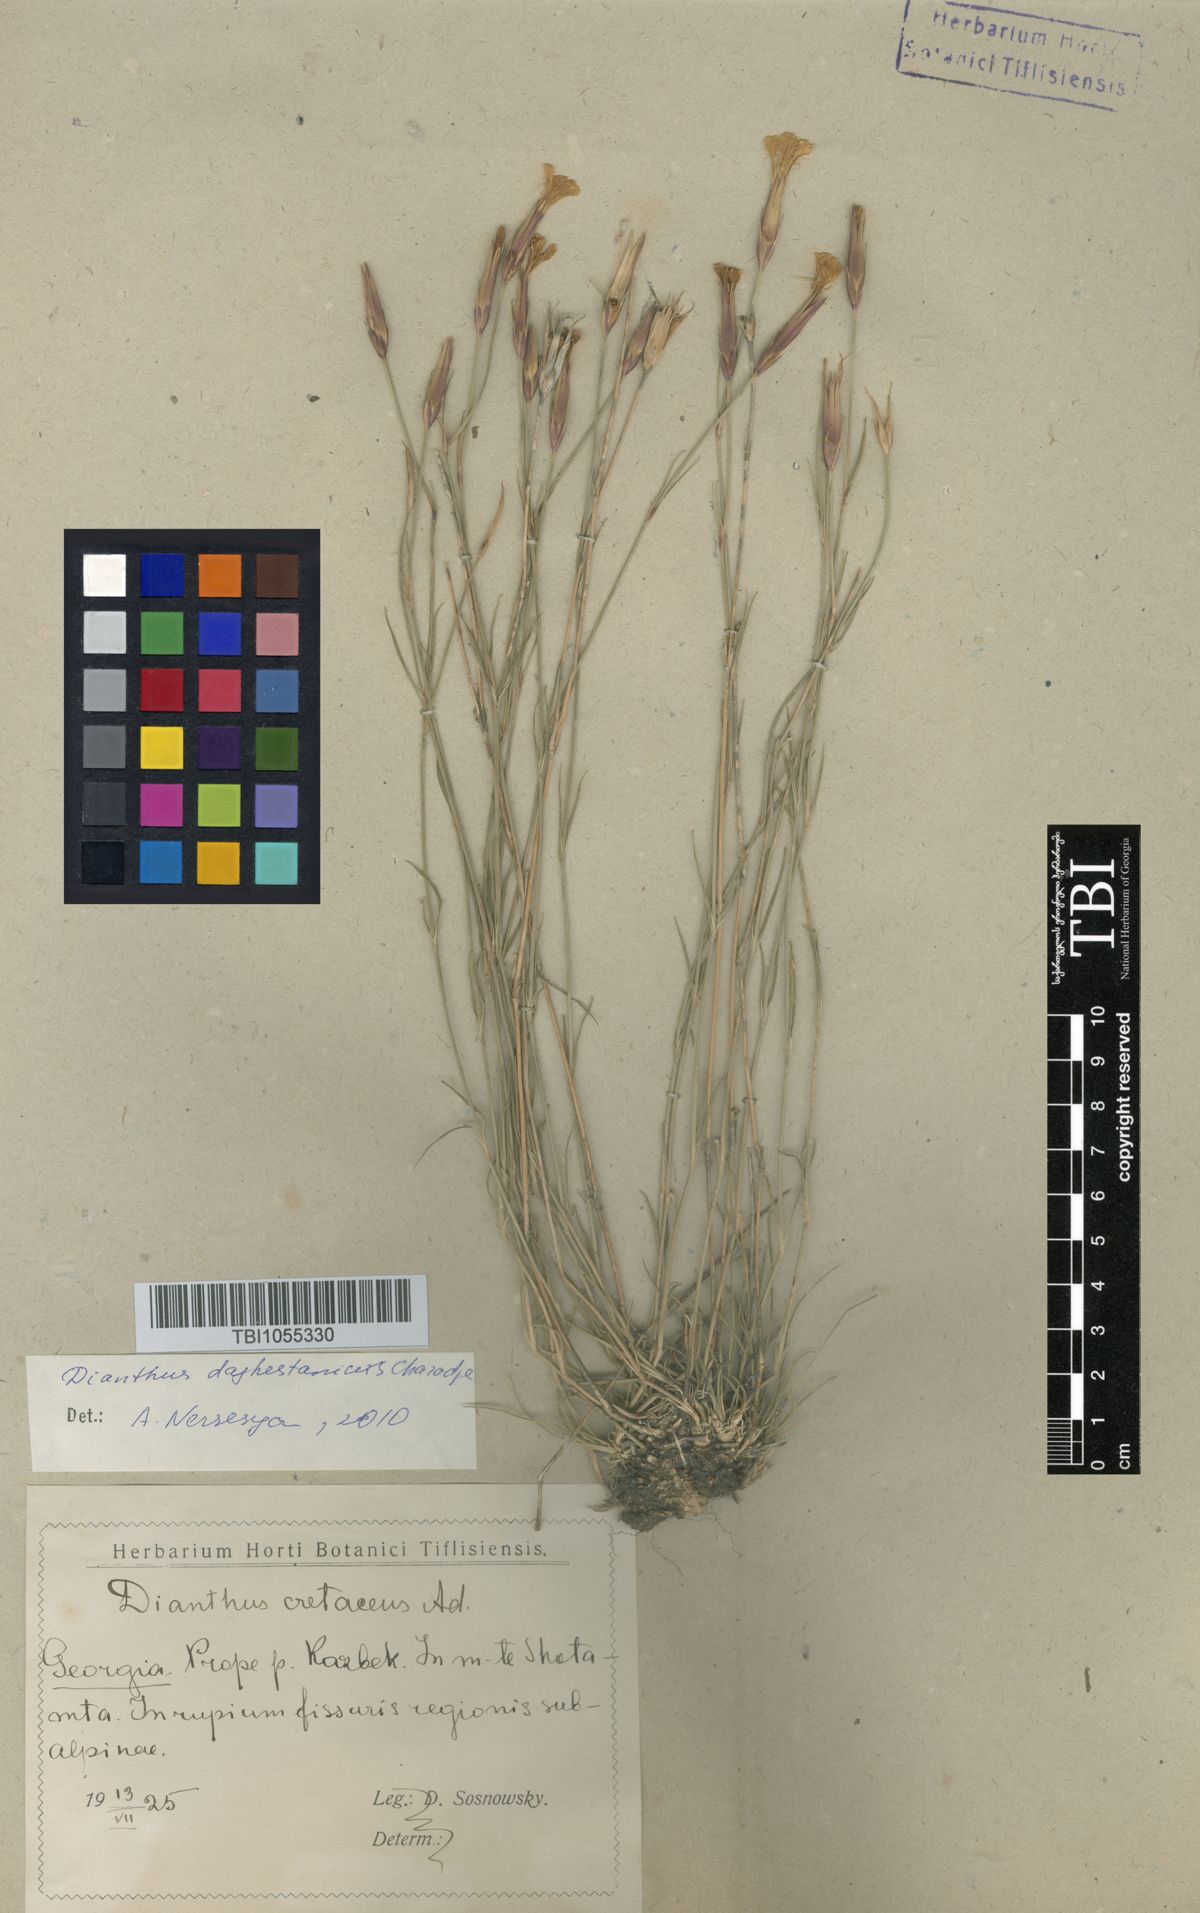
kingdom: Plantae
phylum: Tracheophyta
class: Magnoliopsida
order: Caryophyllales
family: Caryophyllaceae
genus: Dianthus
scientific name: Dianthus cretaceus
